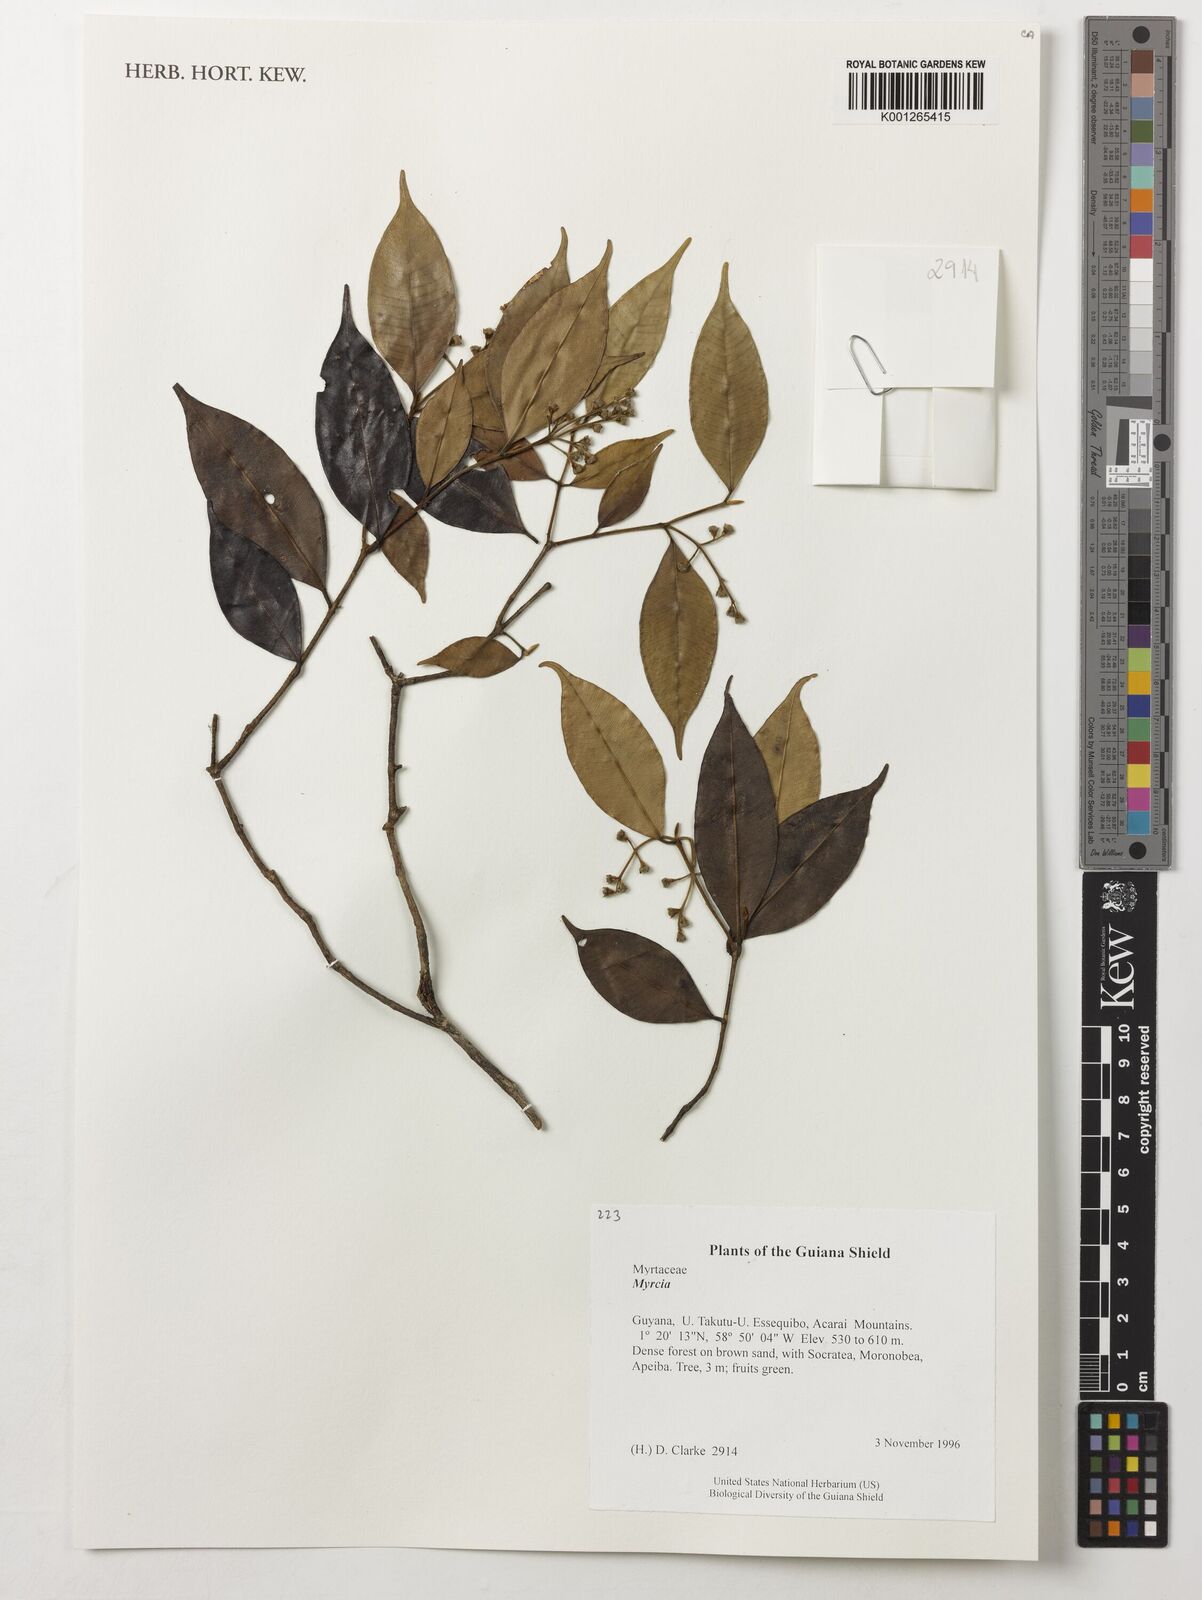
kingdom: Plantae
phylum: Tracheophyta
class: Magnoliopsida
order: Myrtales
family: Myrtaceae
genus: Myrcia
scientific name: Myrcia
